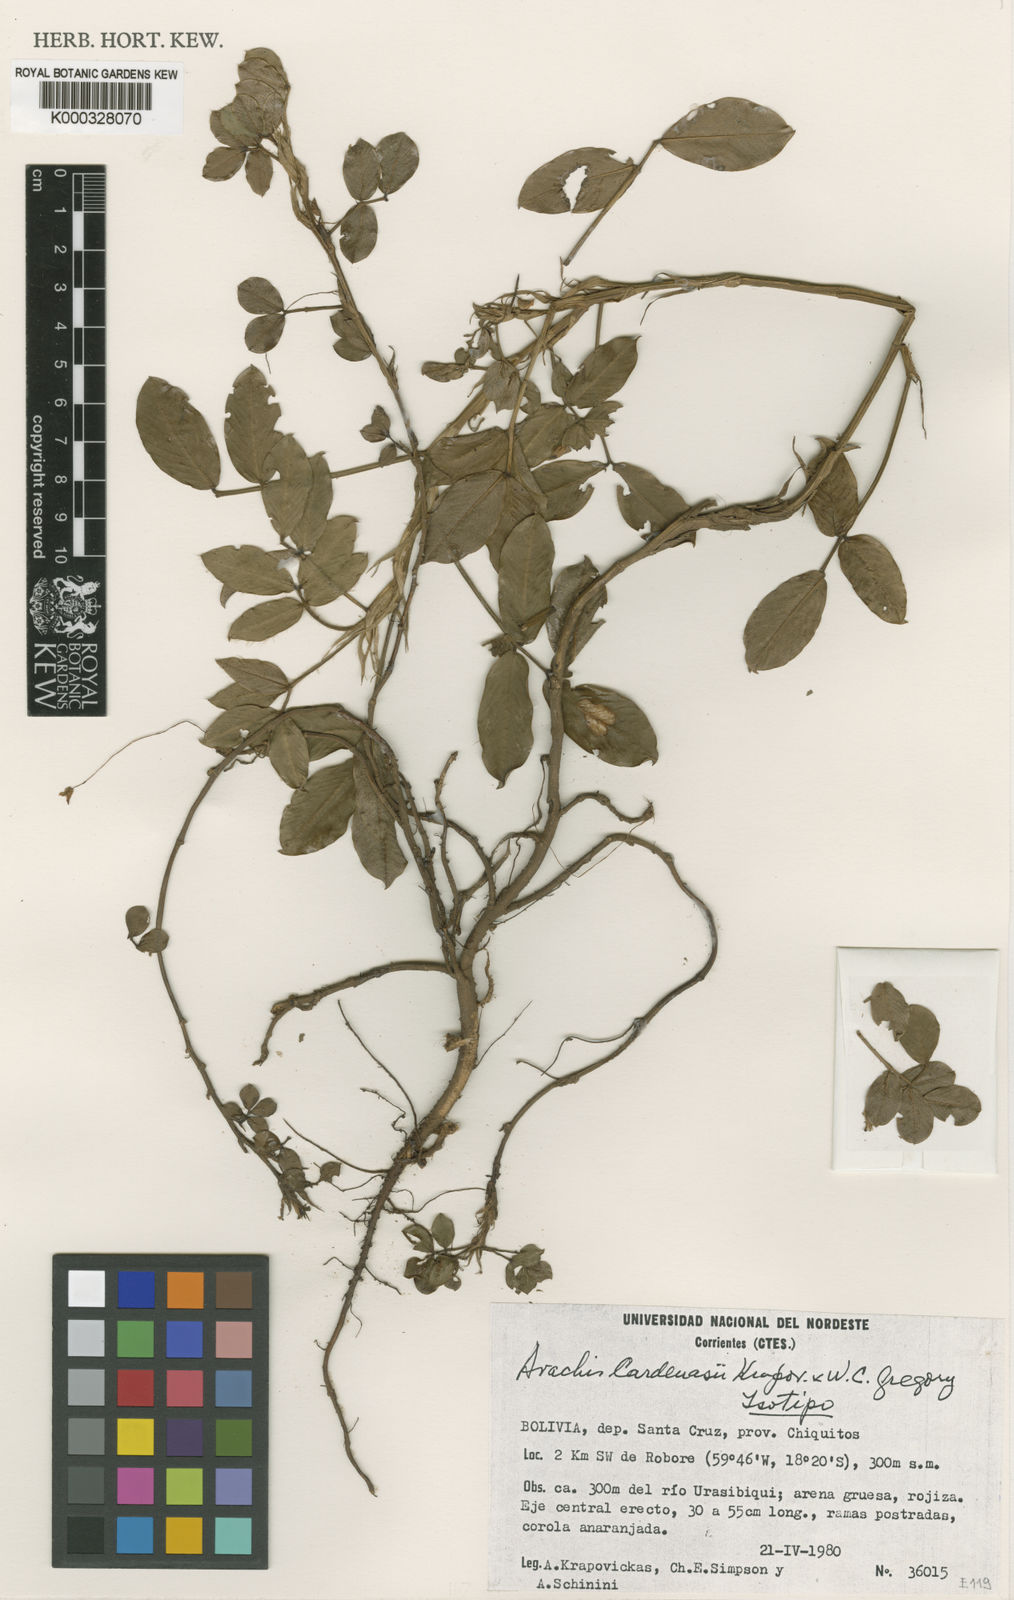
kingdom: Plantae
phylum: Tracheophyta
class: Magnoliopsida
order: Fabales
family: Fabaceae
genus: Arachis
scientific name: Arachis cardenasii
